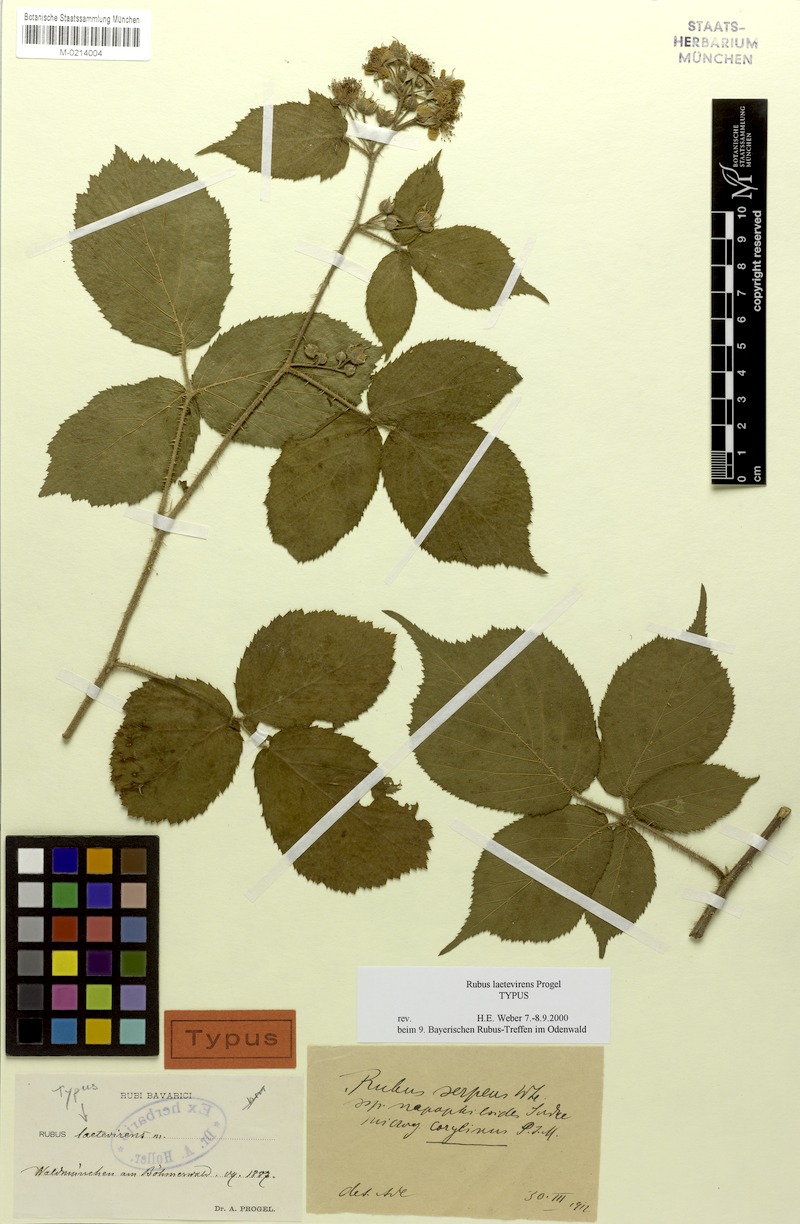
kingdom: Plantae
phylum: Tracheophyta
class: Magnoliopsida
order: Rosales
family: Rosaceae
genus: Rubus
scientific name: Rubus laetevirens
